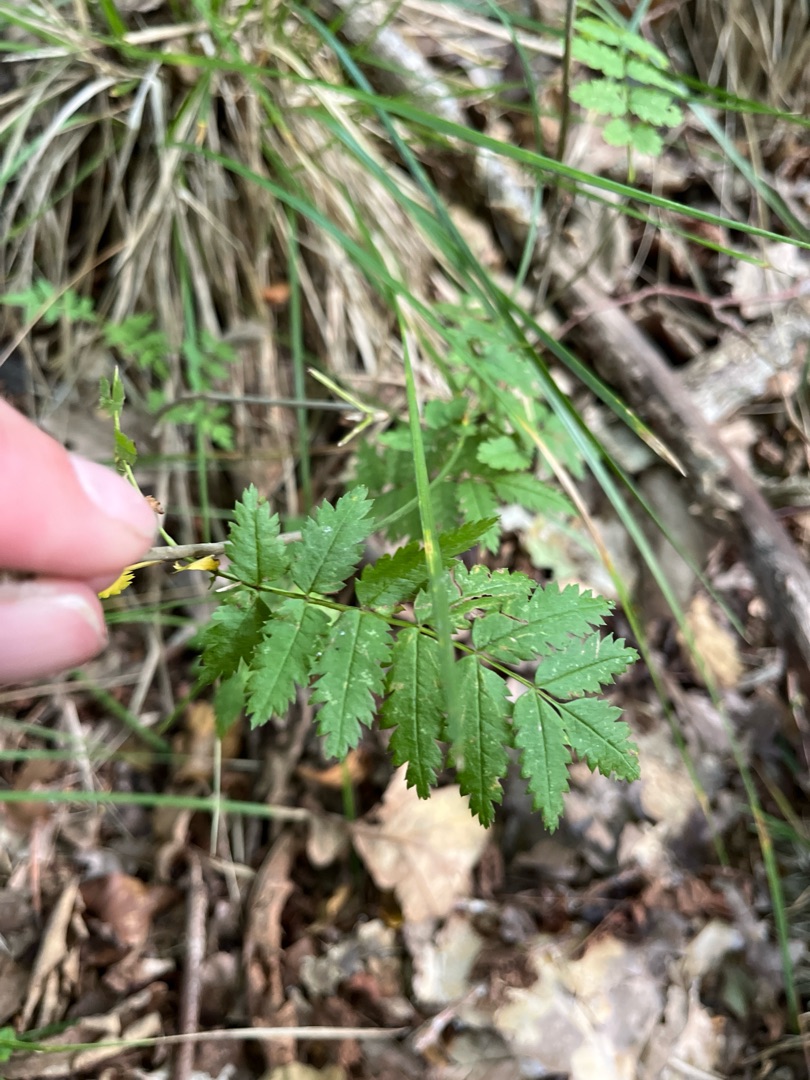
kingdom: Plantae
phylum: Tracheophyta
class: Magnoliopsida
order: Rosales
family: Rosaceae
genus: Sorbus
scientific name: Sorbus aucuparia
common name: Almindelig røn
